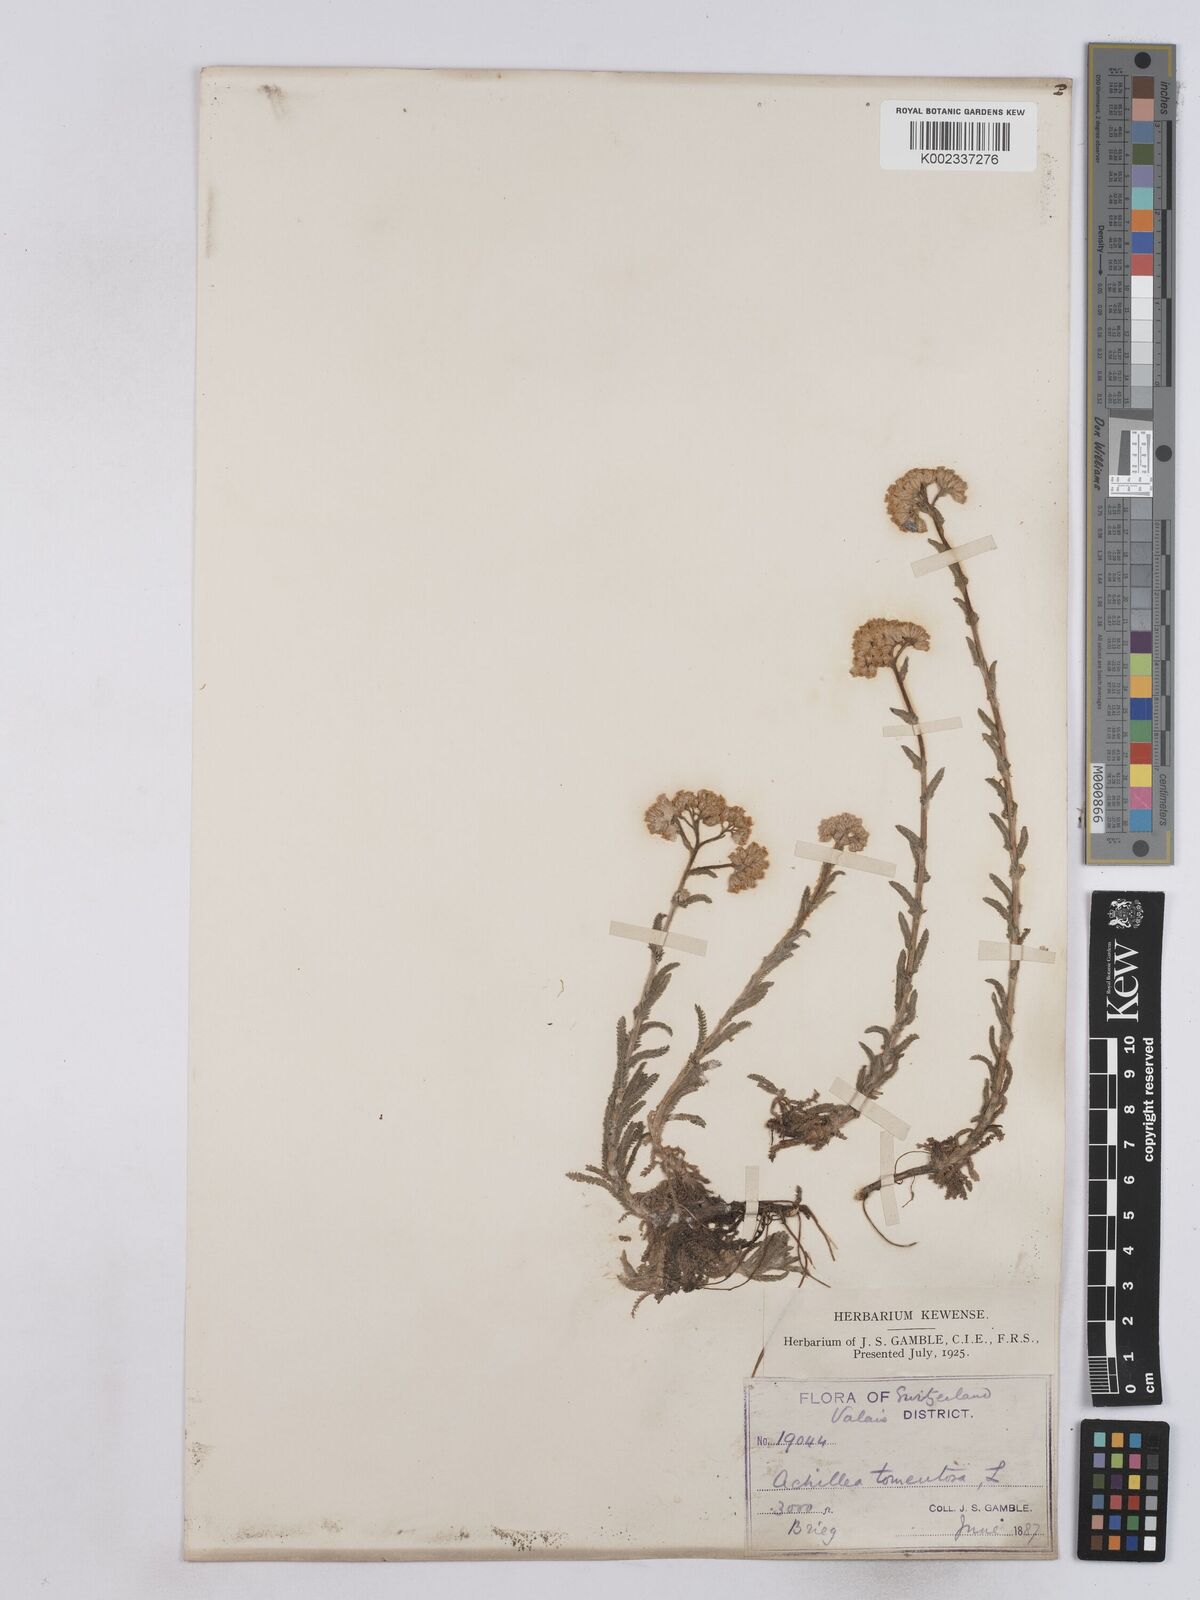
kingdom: Plantae
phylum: Tracheophyta
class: Magnoliopsida
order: Asterales
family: Asteraceae
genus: Achillea
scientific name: Achillea tomentosa
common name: Yellow milfoil
